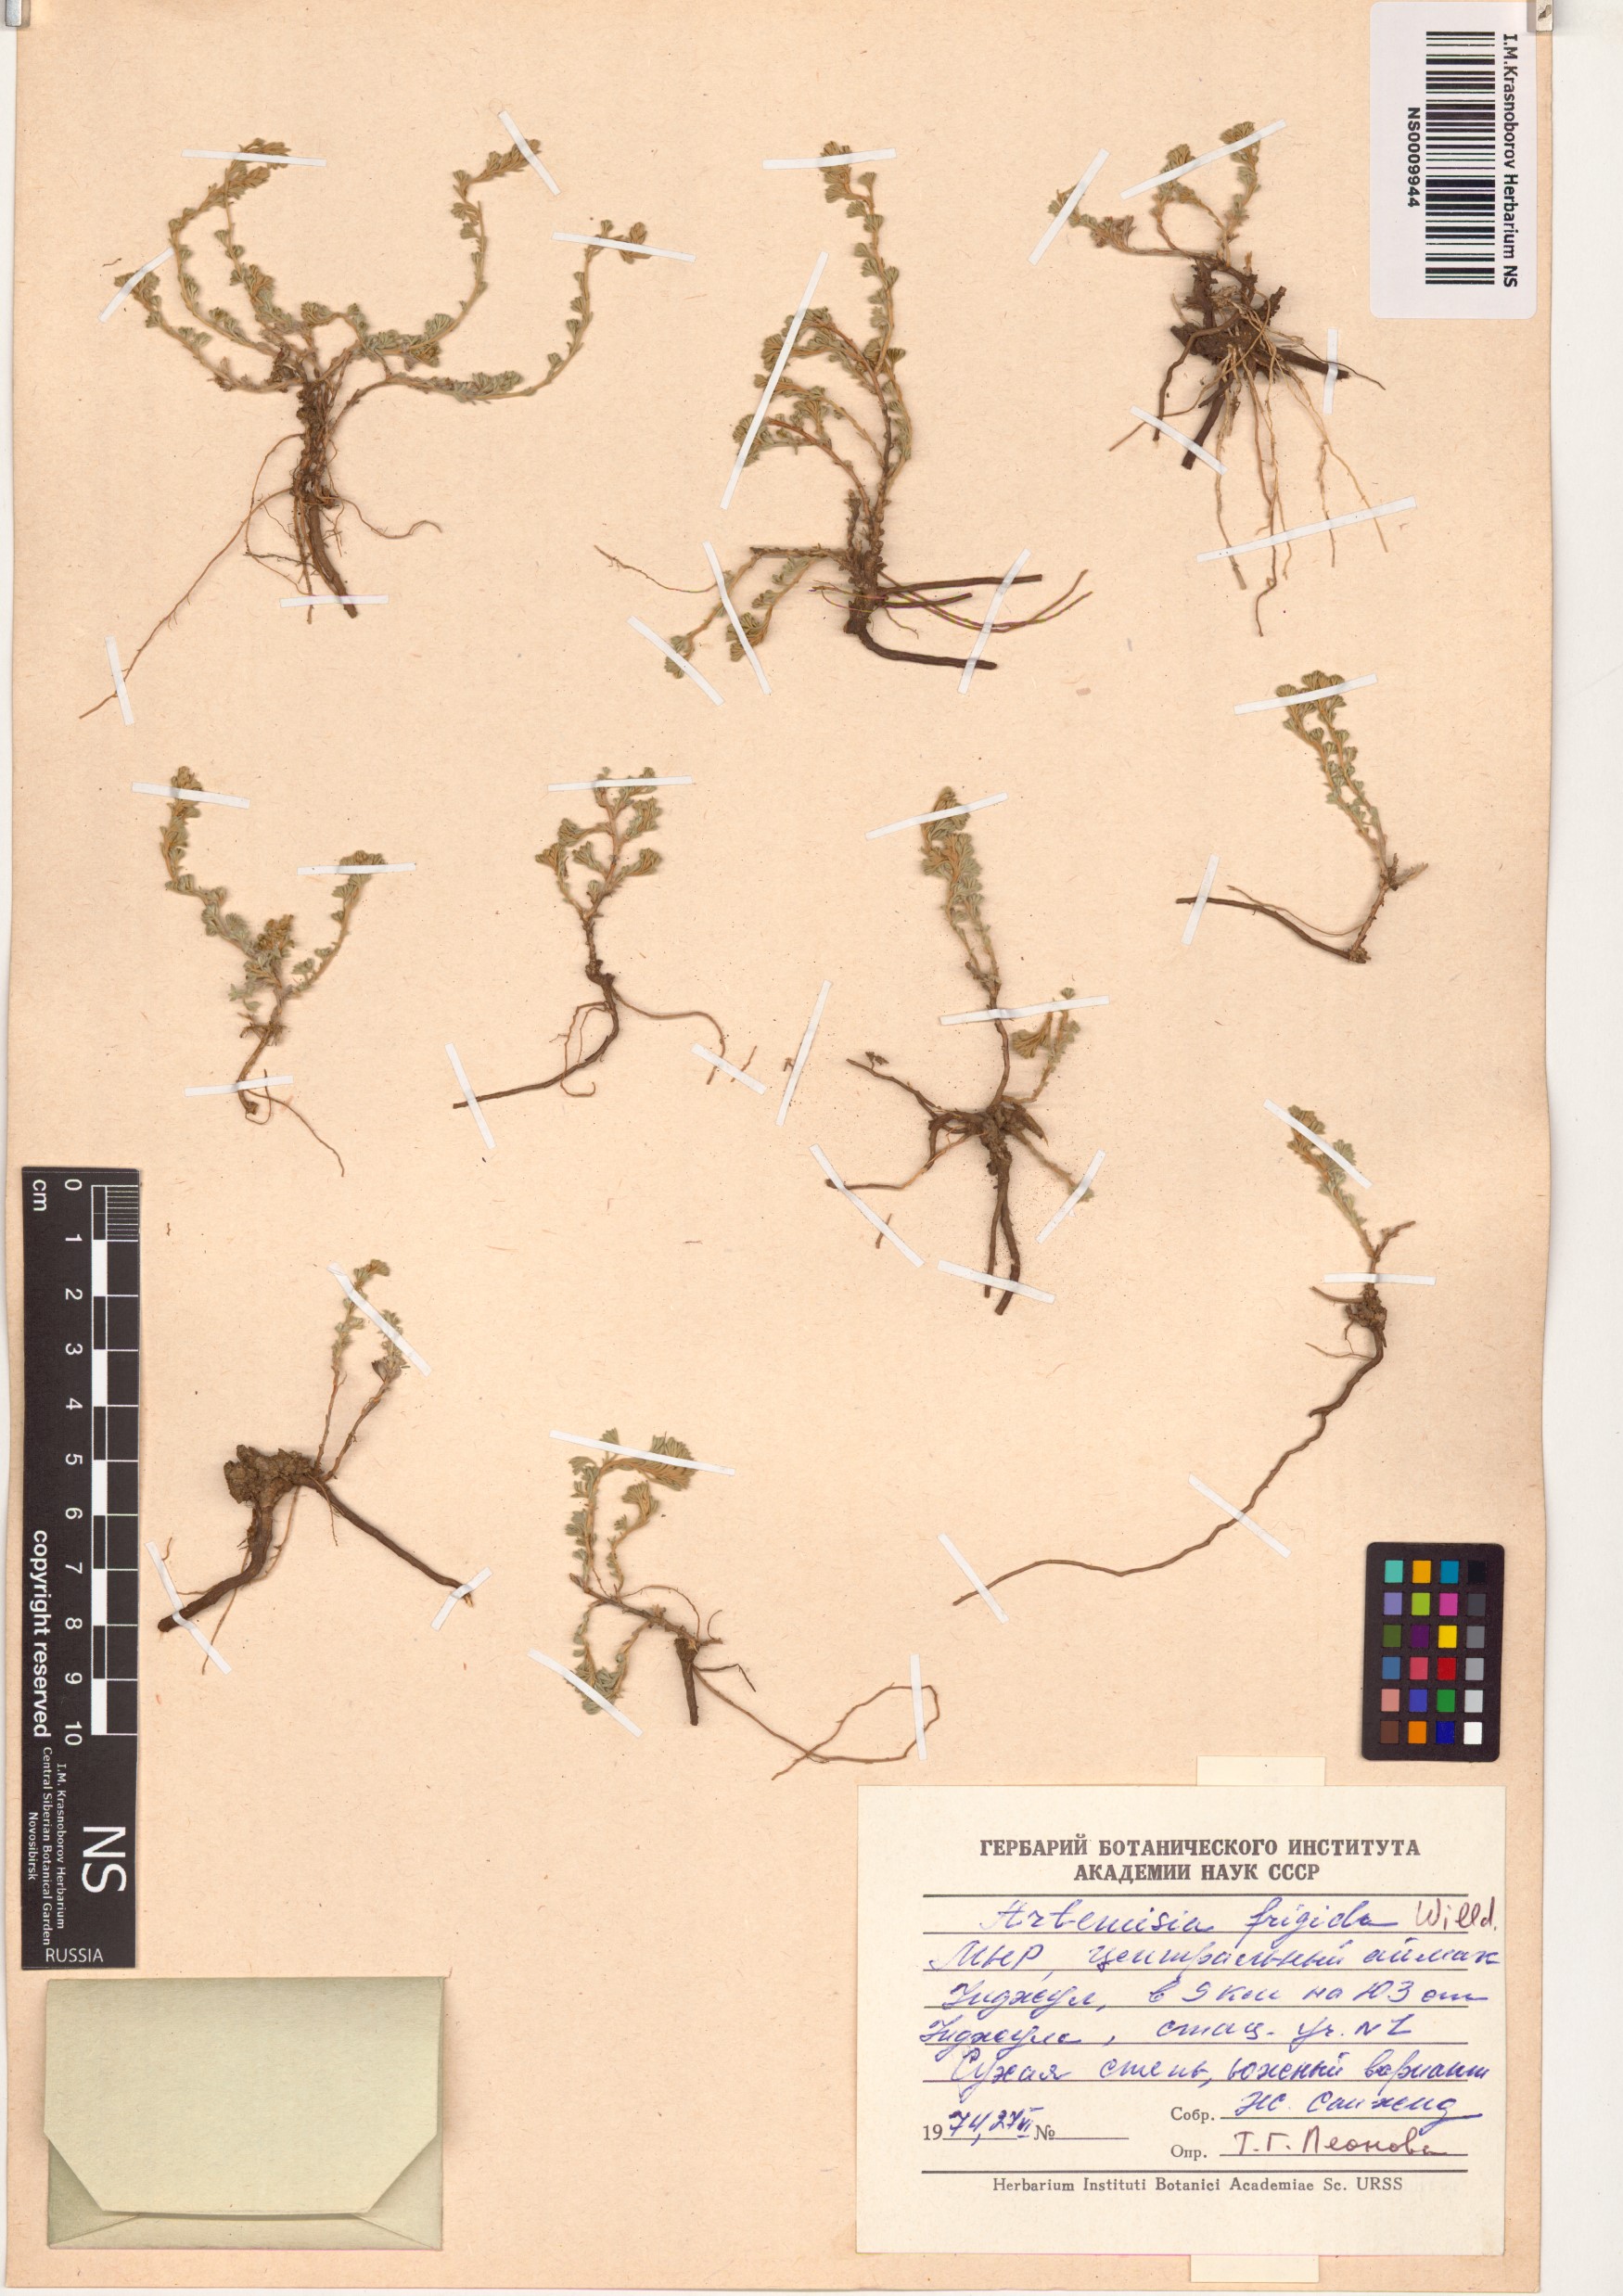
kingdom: Plantae
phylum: Tracheophyta
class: Magnoliopsida
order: Asterales
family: Asteraceae
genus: Artemisia
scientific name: Artemisia frigida
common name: Prairie sagewort
